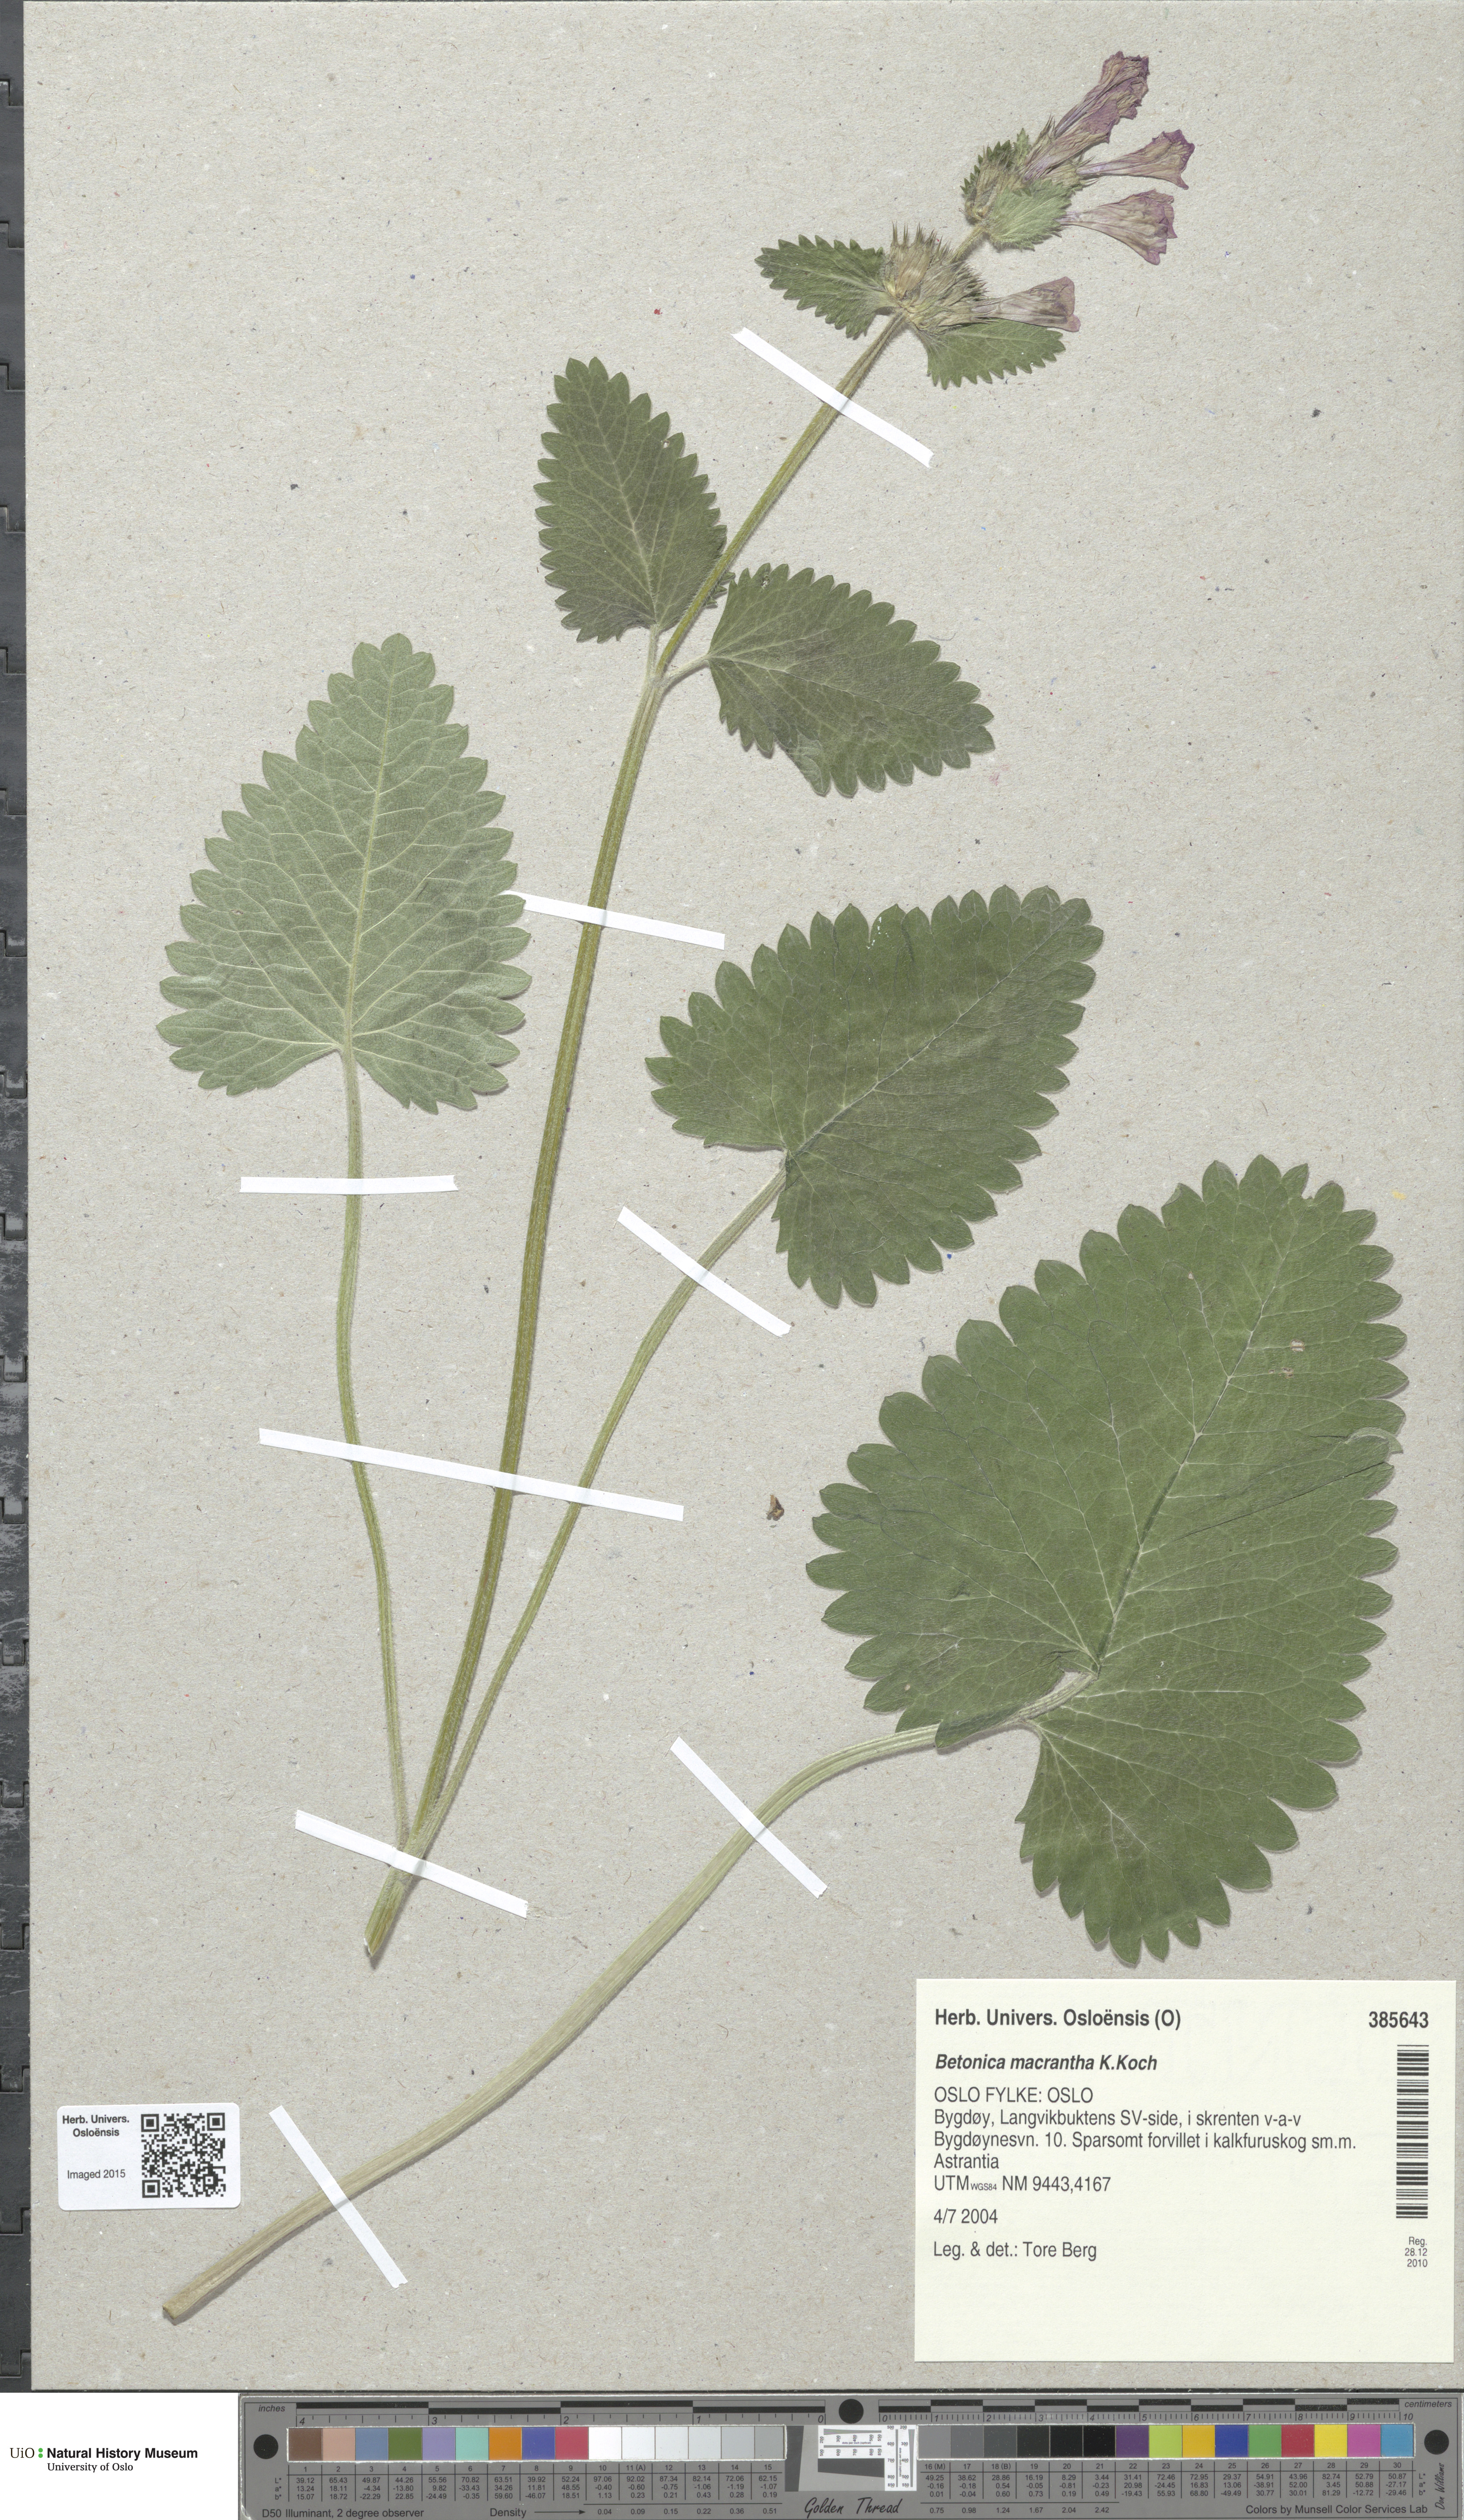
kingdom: Plantae
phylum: Tracheophyta
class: Magnoliopsida
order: Lamiales
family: Lamiaceae
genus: Betonica
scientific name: Betonica macrantha
